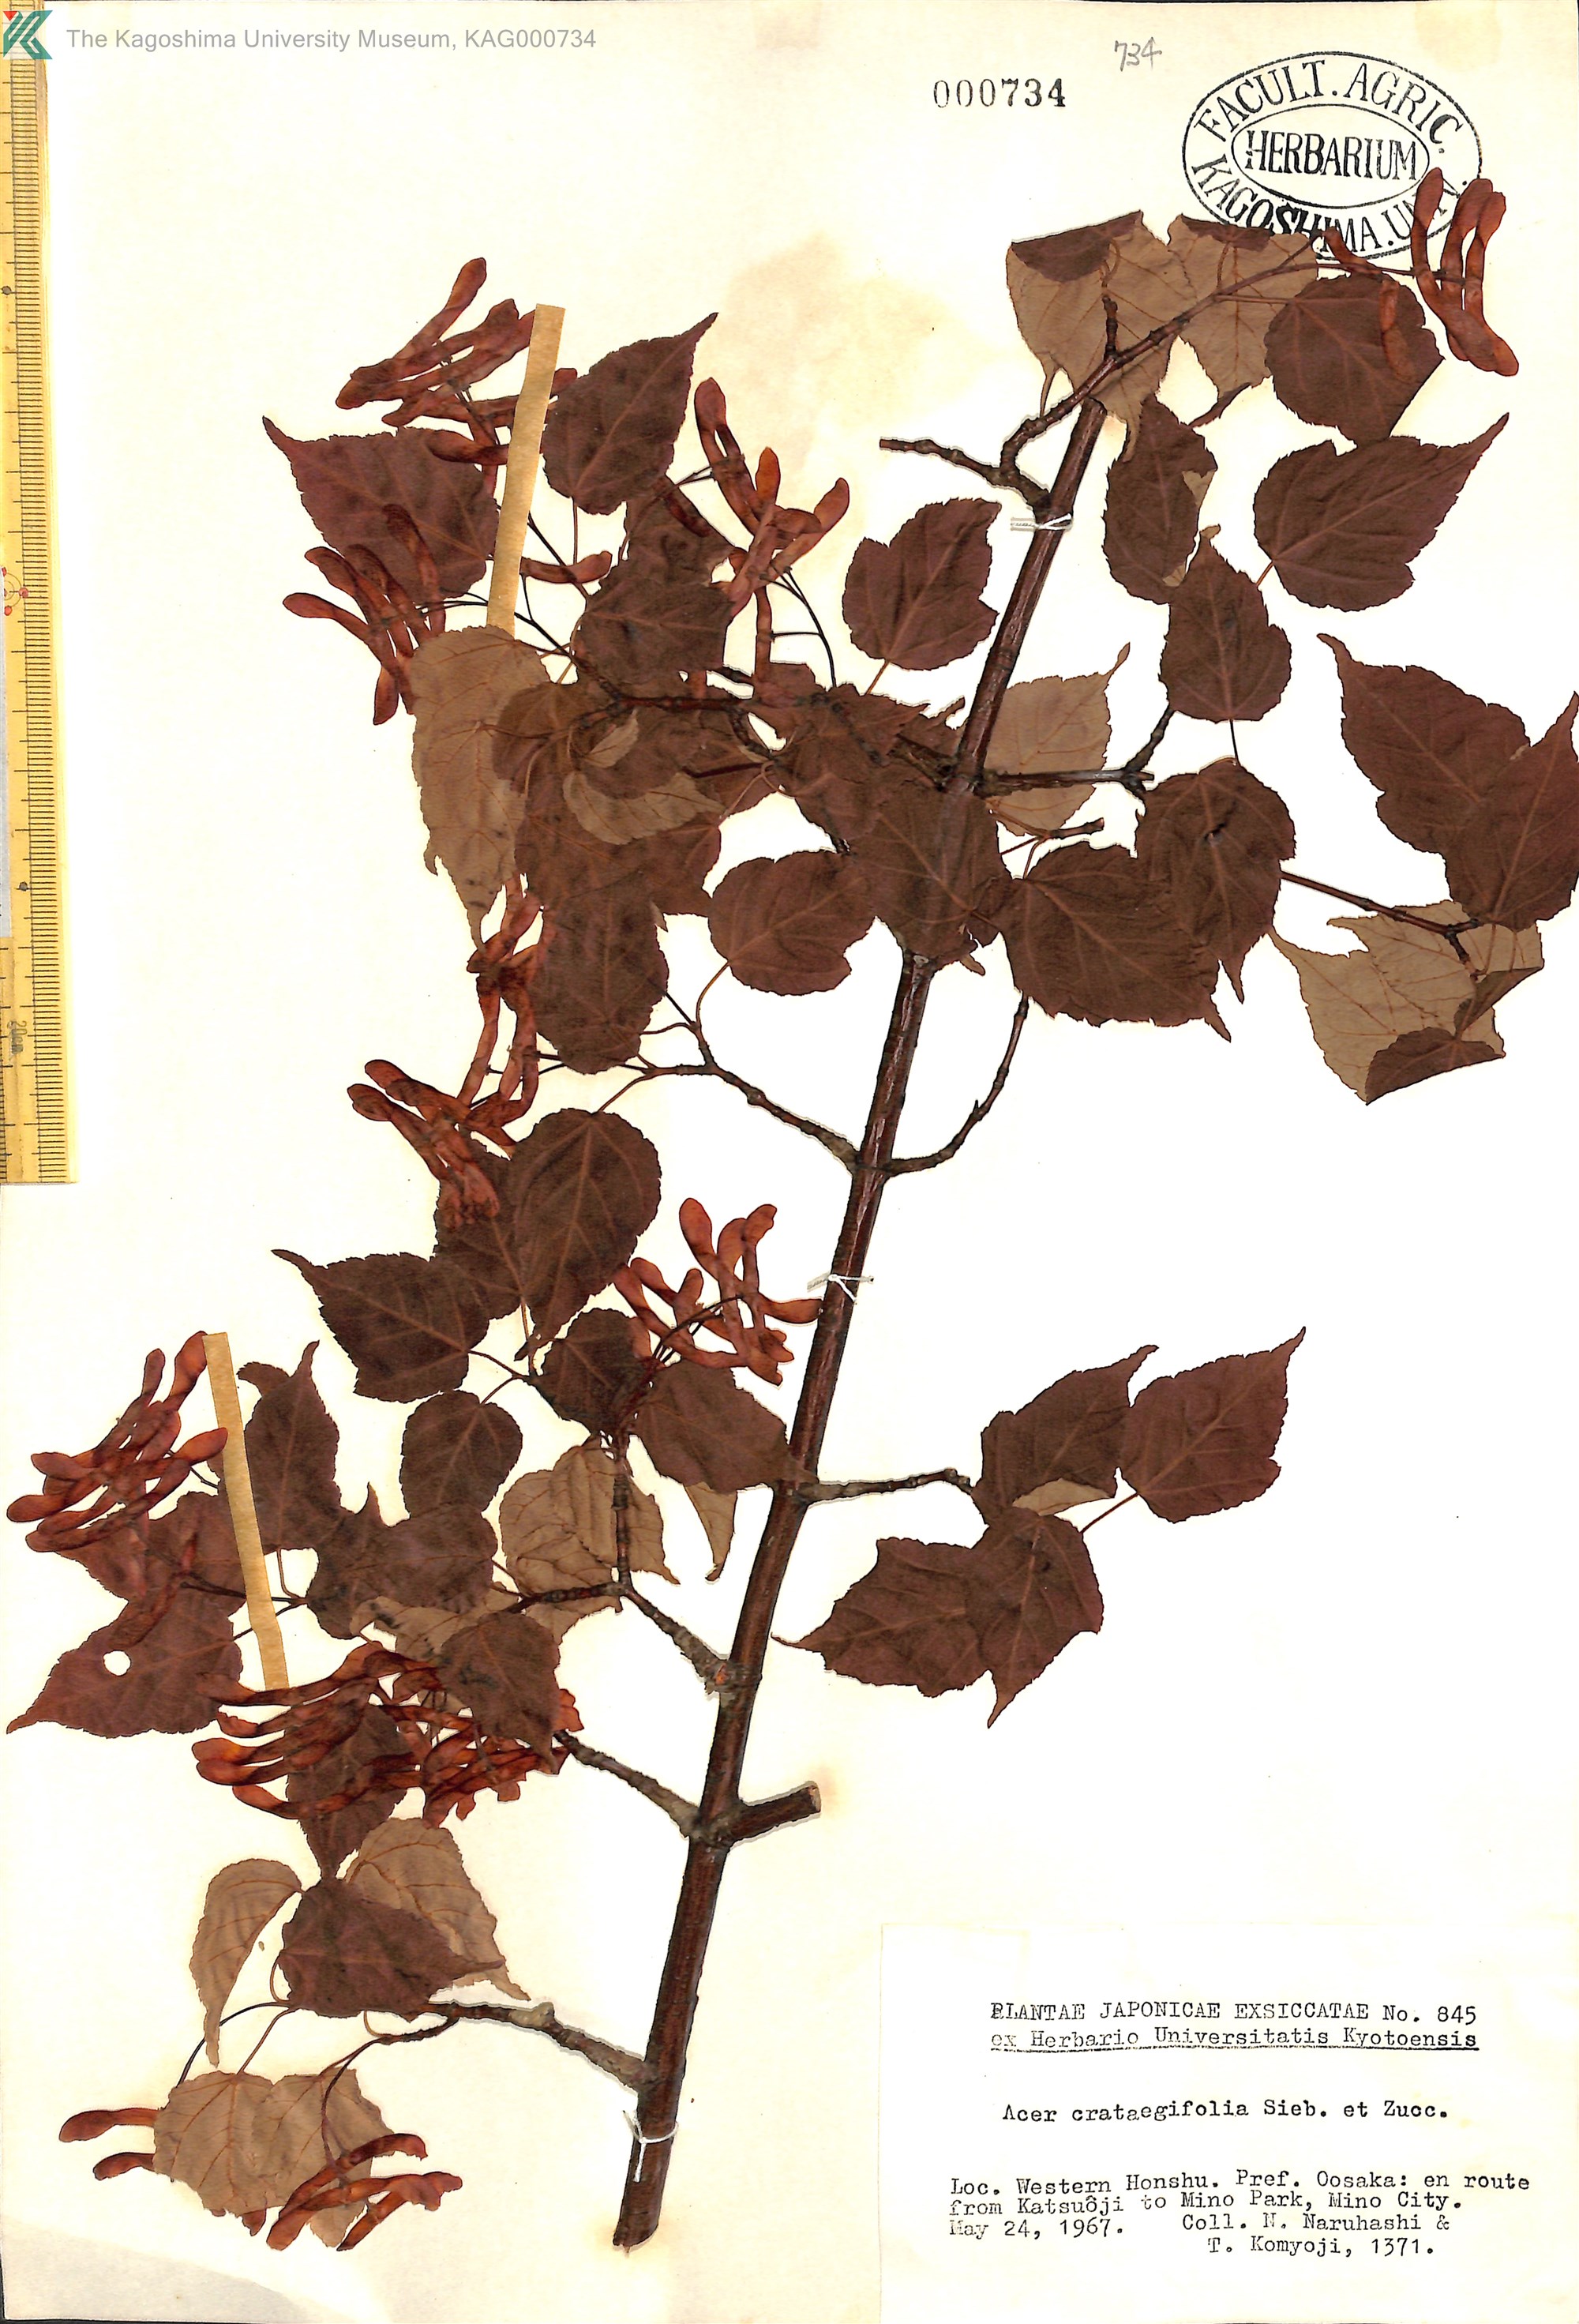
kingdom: Plantae
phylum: Tracheophyta
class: Magnoliopsida
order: Sapindales
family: Sapindaceae
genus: Acer
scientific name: Acer crataegifolium
